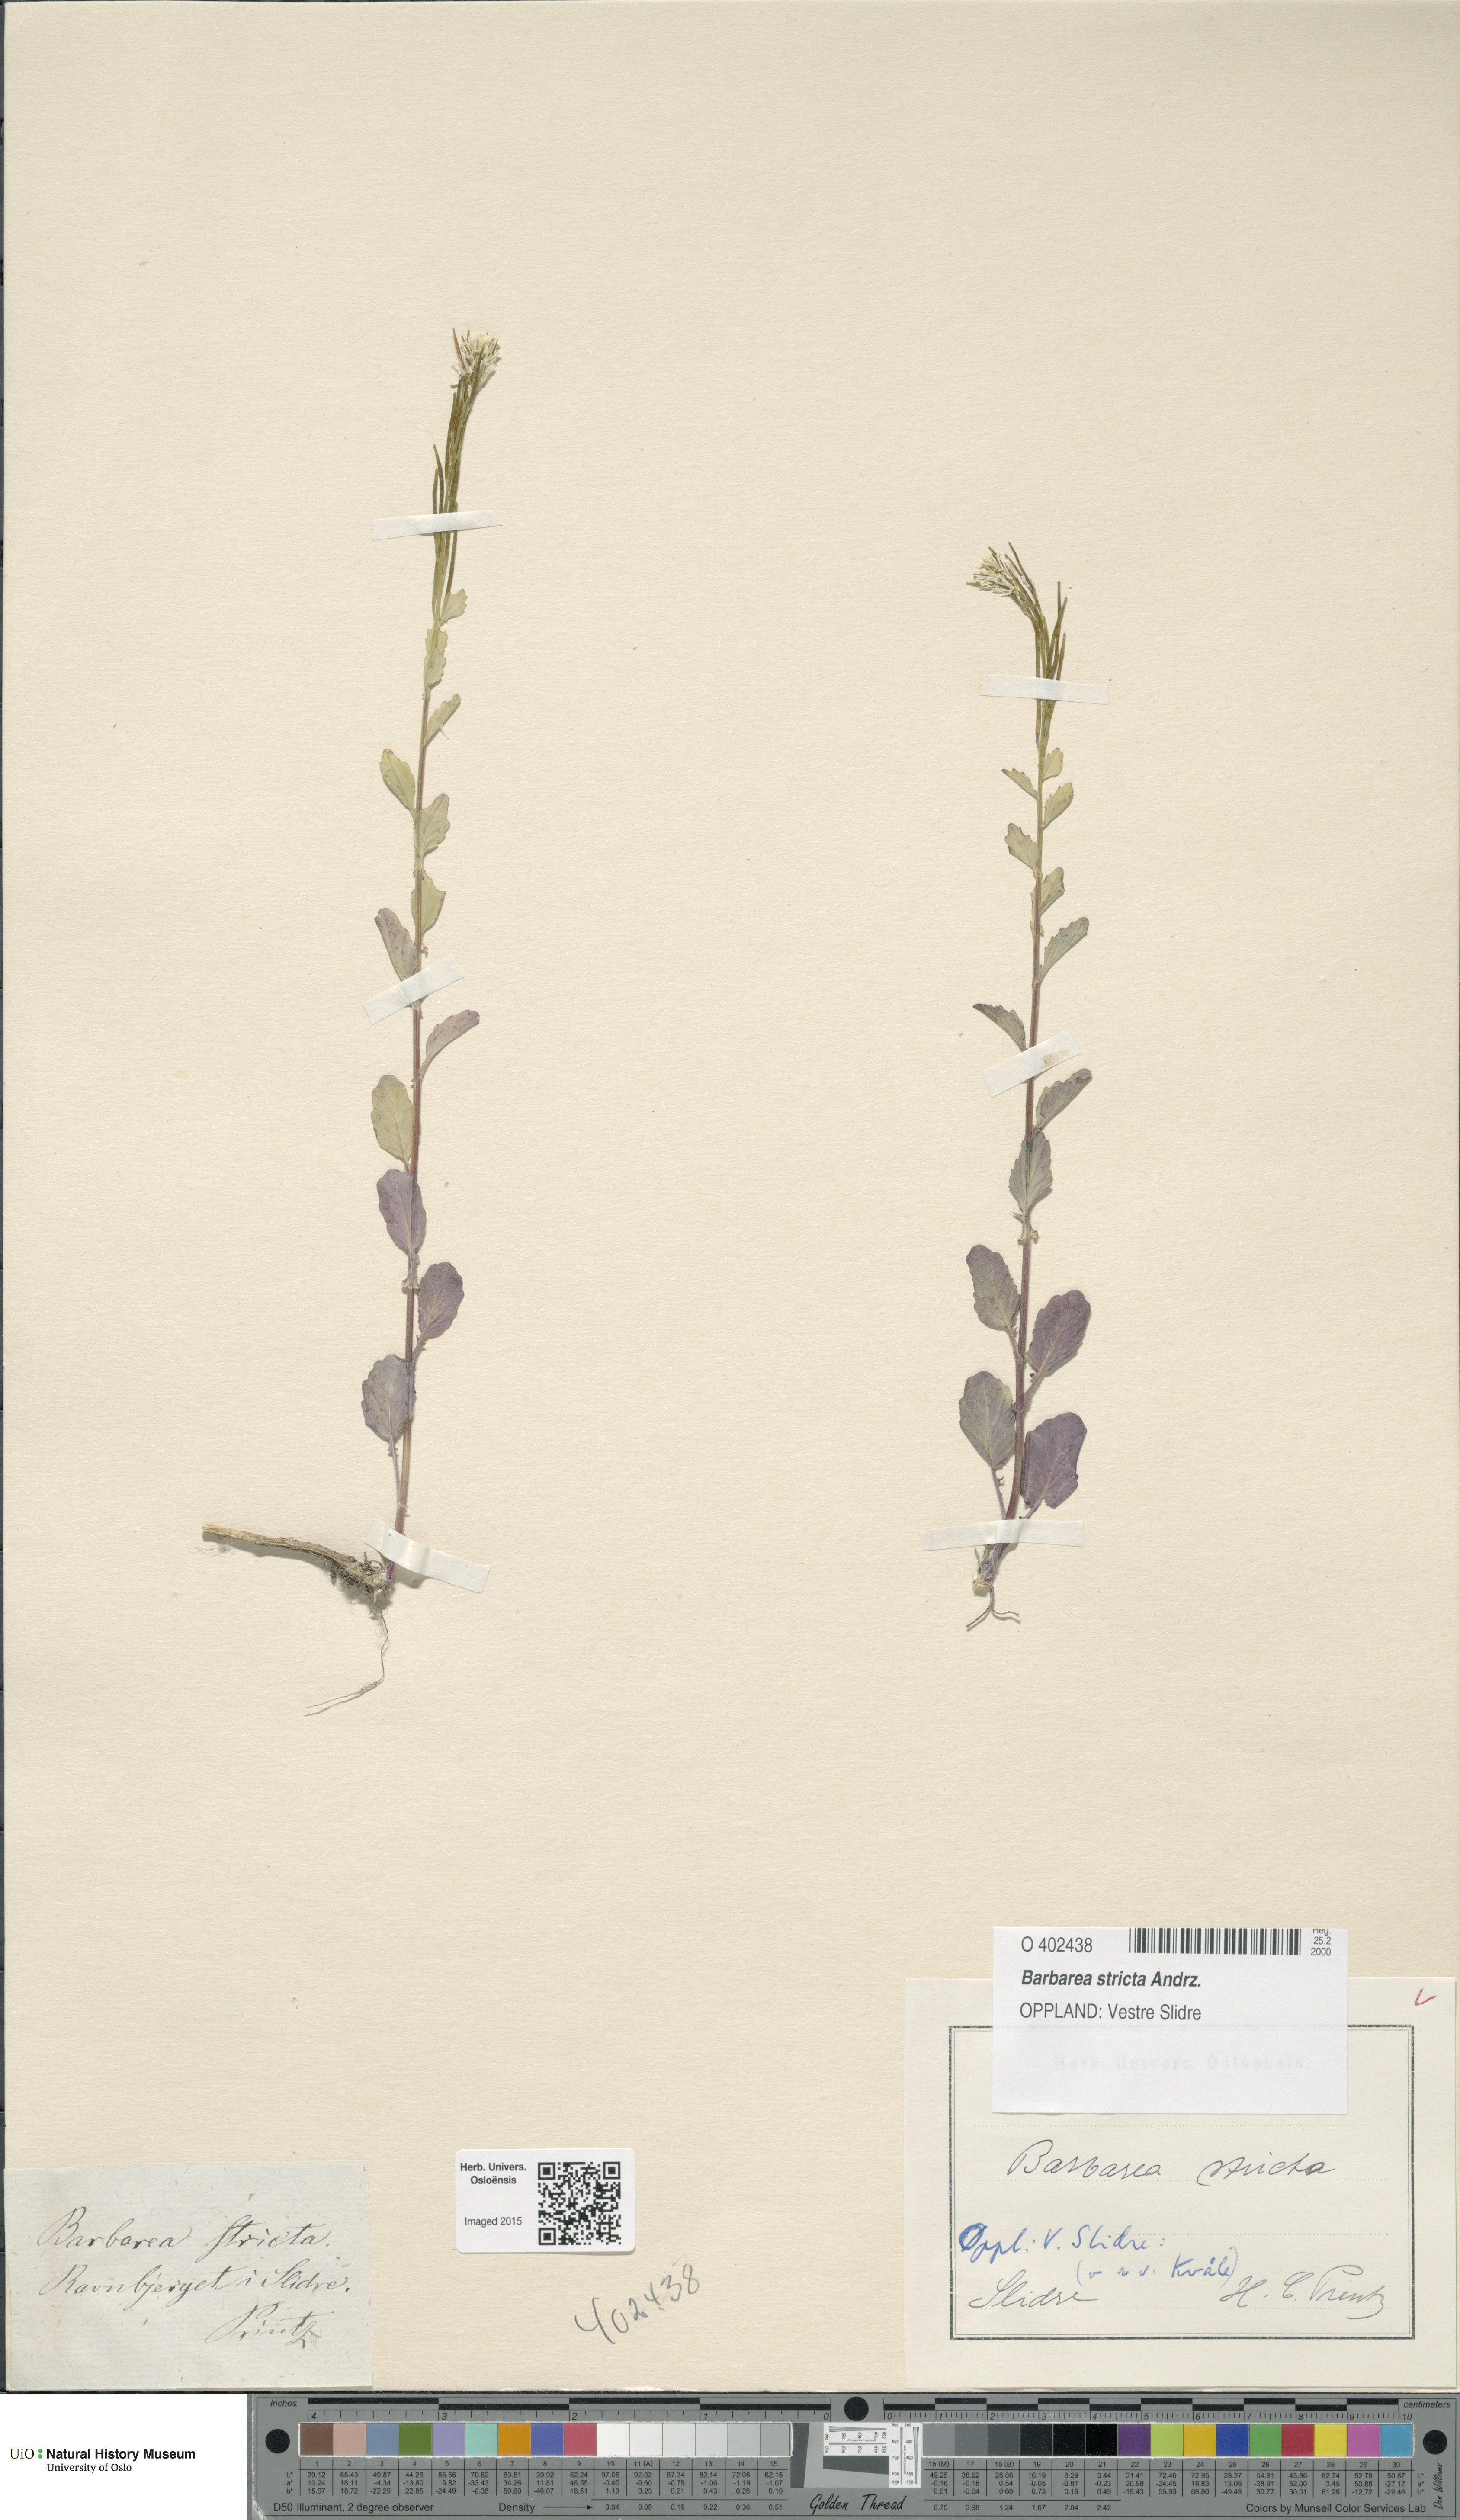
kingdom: Plantae
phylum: Tracheophyta
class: Magnoliopsida
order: Brassicales
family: Brassicaceae
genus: Barbarea
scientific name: Barbarea stricta
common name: Small-flowered winter-cress
